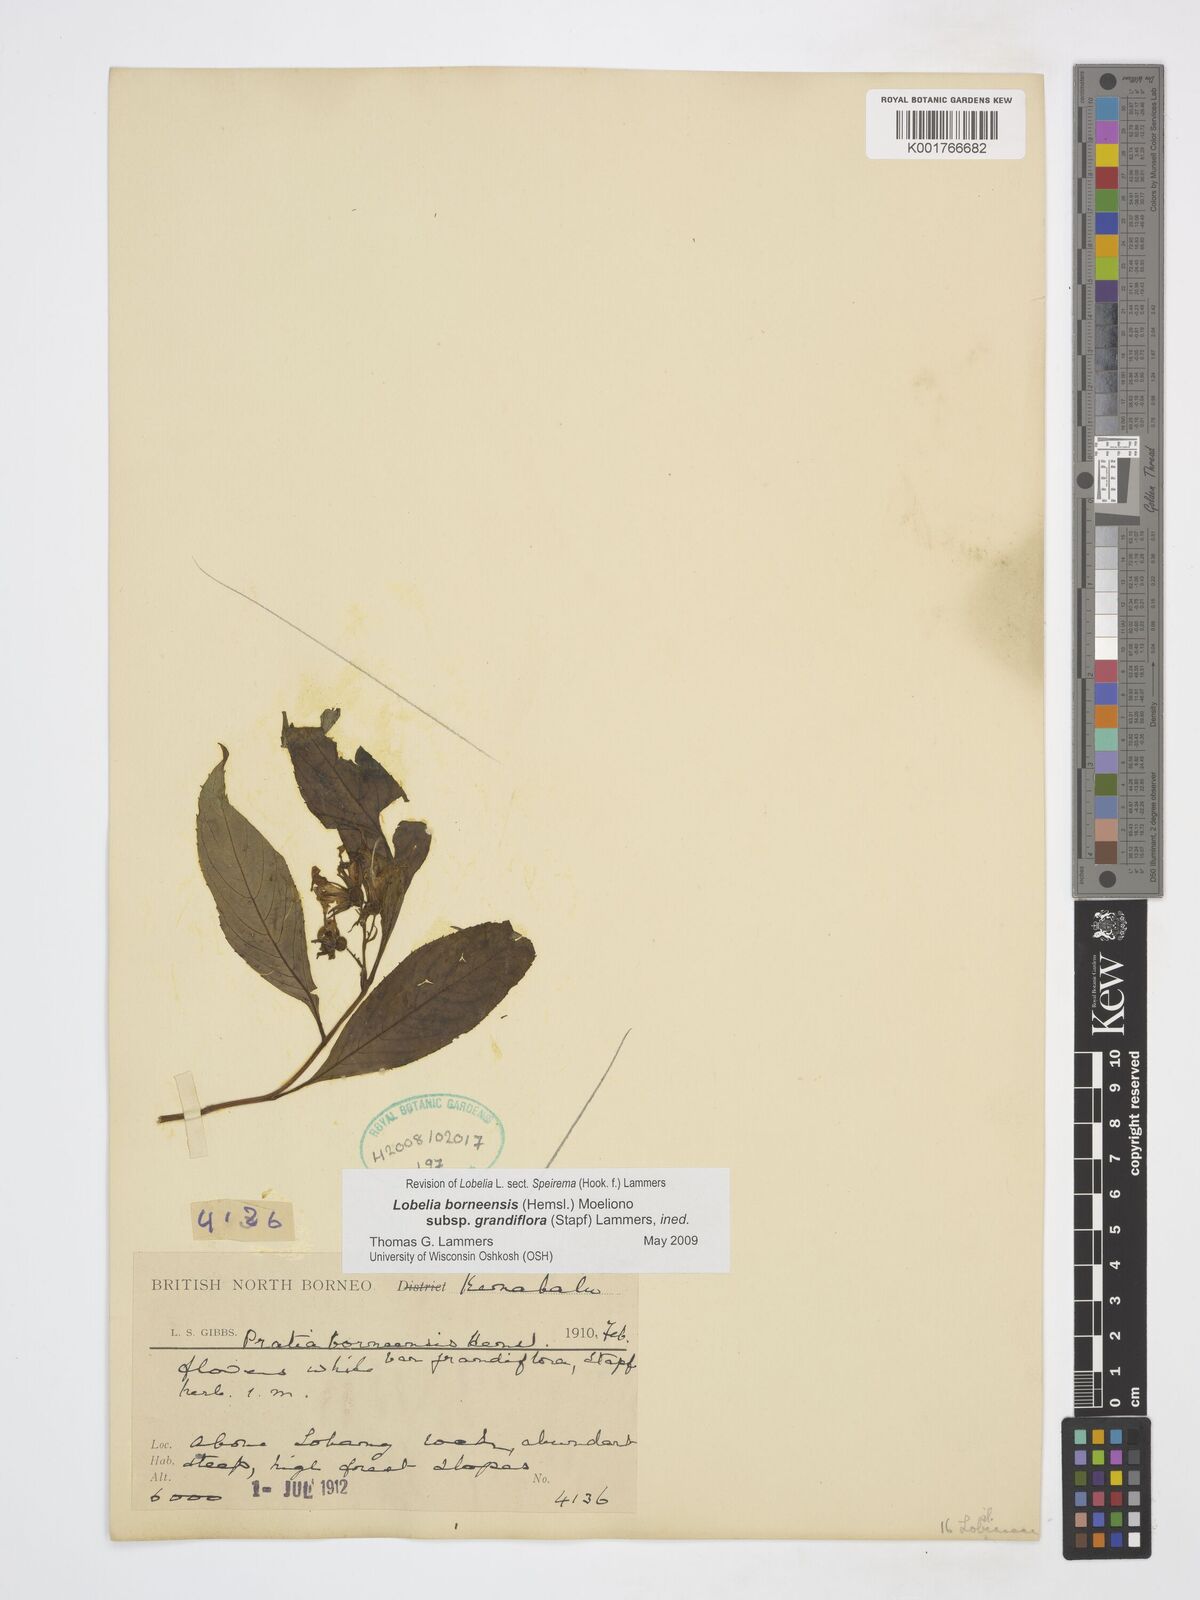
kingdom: Plantae
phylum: Tracheophyta
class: Magnoliopsida
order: Asterales
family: Campanulaceae
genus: Lobelia
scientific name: Lobelia borneensis
